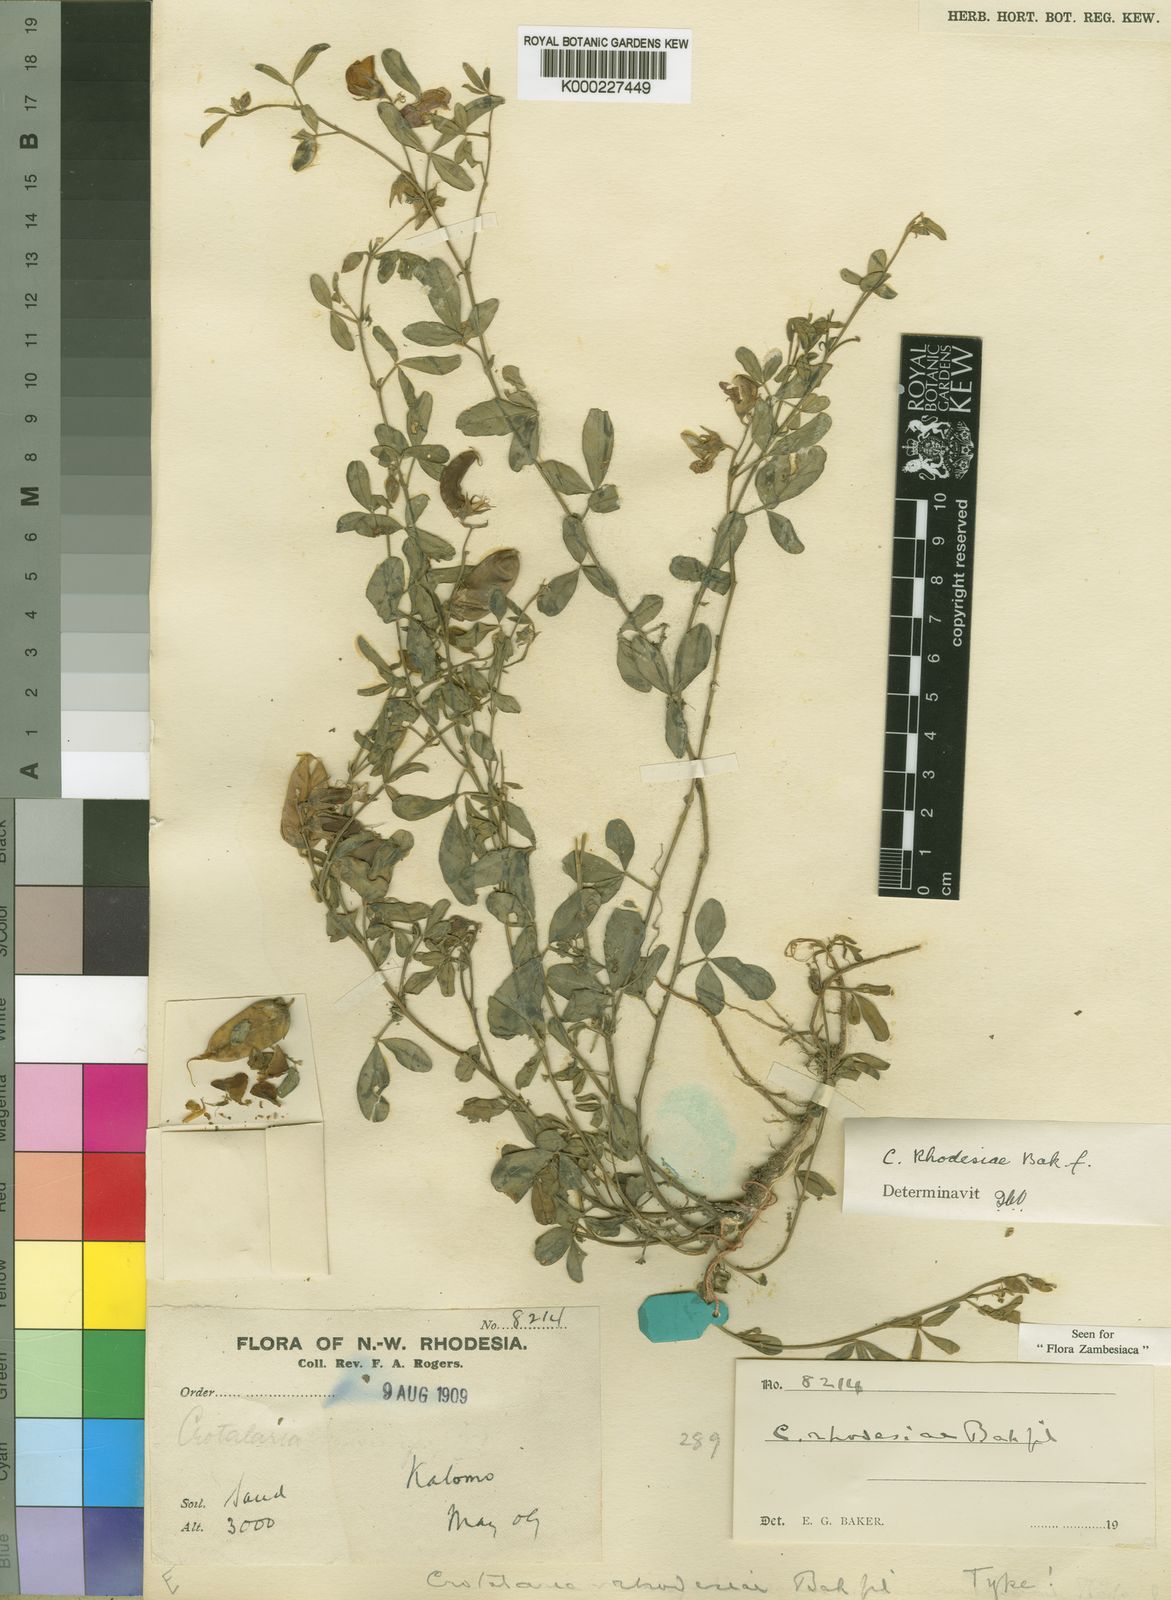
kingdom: Plantae
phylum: Tracheophyta
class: Magnoliopsida
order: Fabales
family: Fabaceae
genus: Crotalaria
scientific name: Crotalaria rhodesiae
